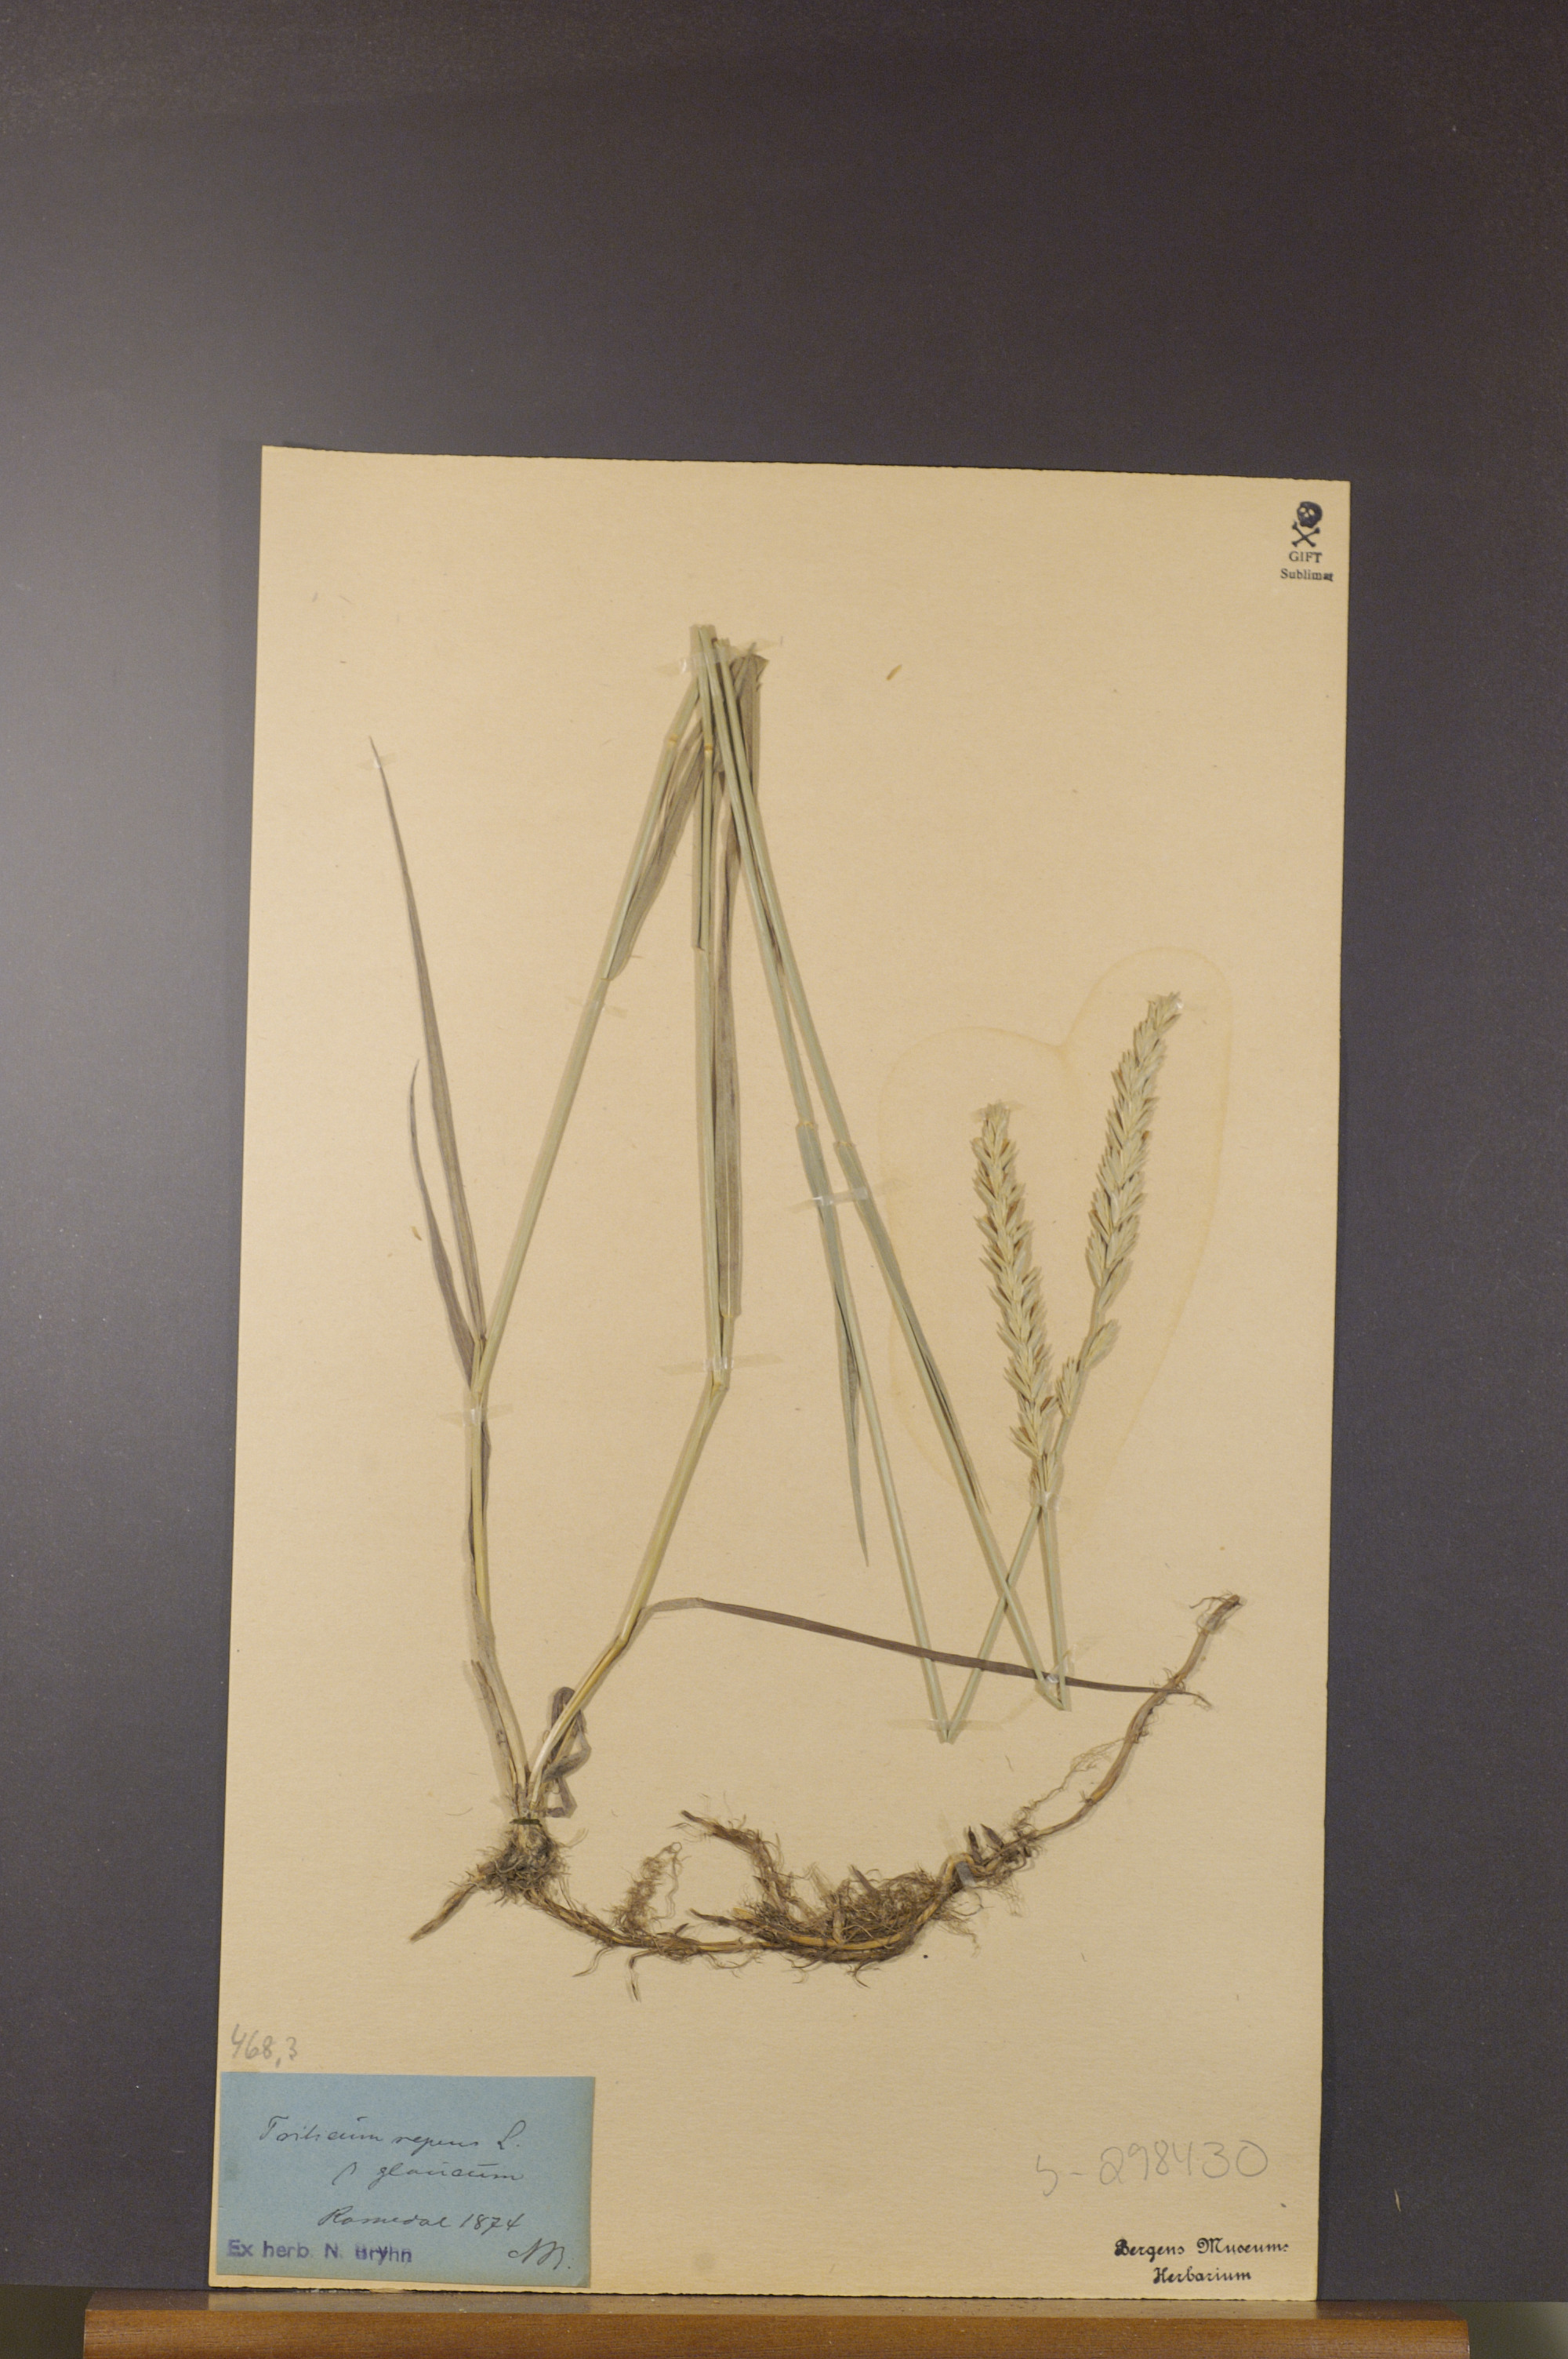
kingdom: Plantae
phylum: Tracheophyta
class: Liliopsida
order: Poales
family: Poaceae
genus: Elymus
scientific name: Elymus repens
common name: Quackgrass
